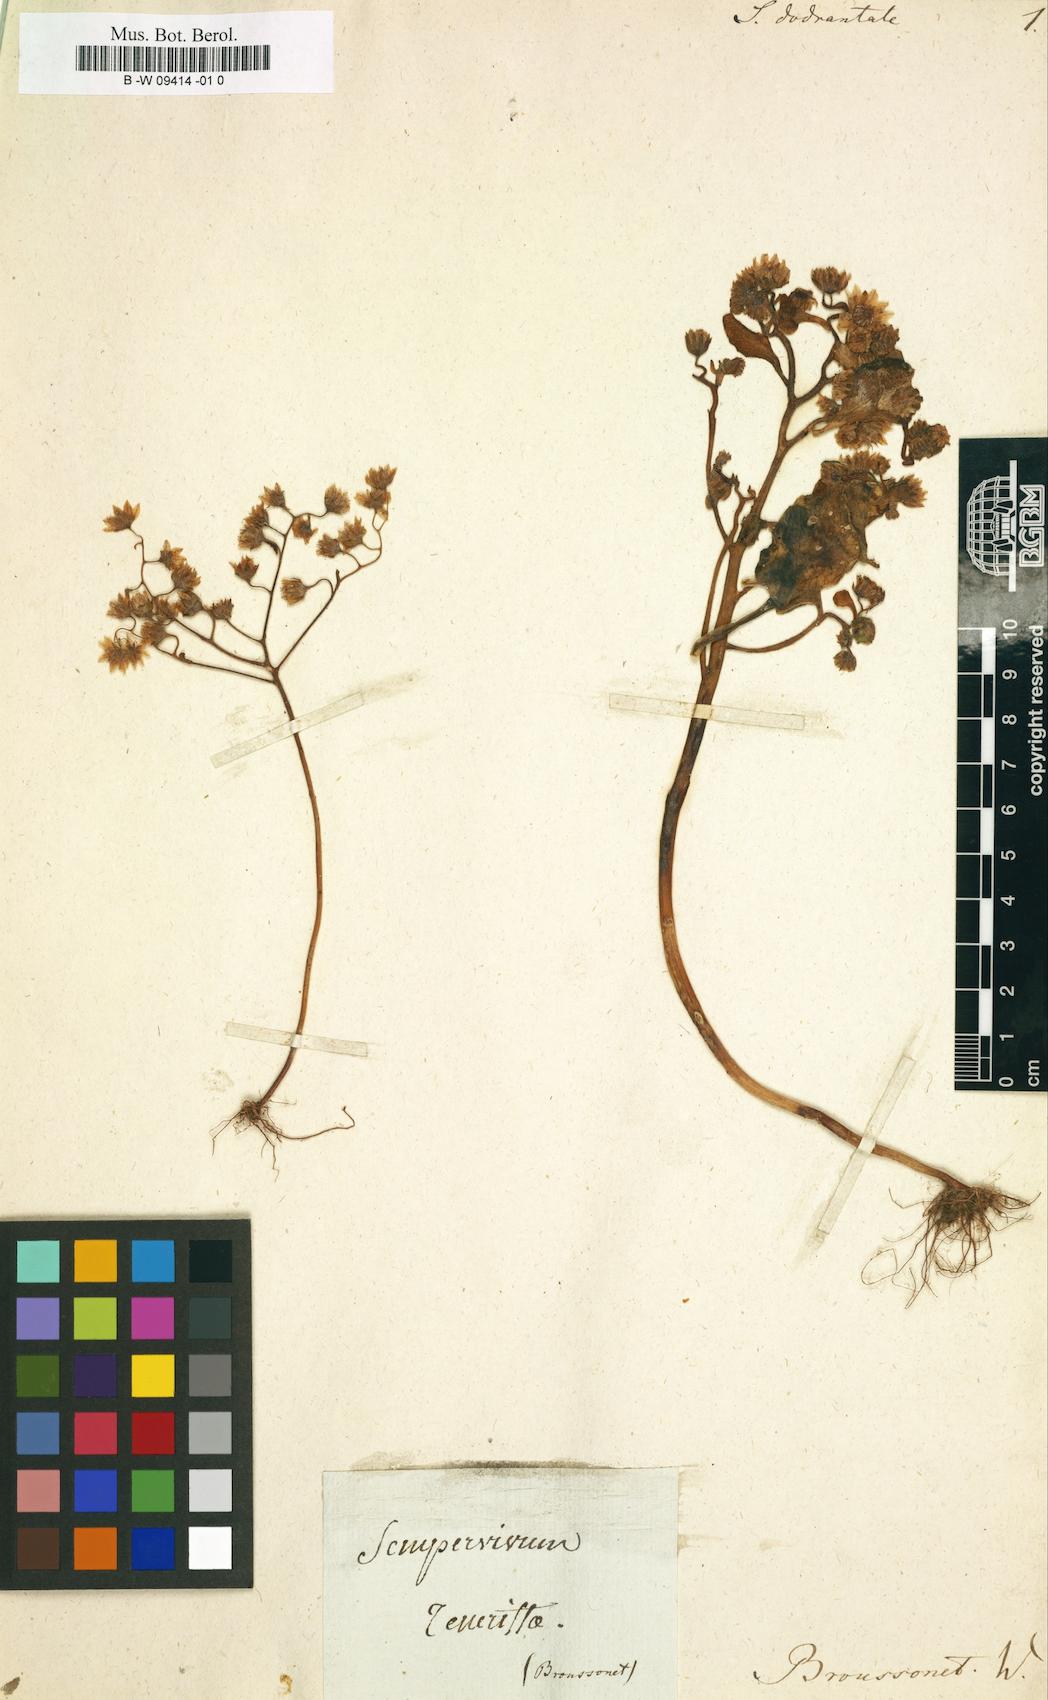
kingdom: Plantae
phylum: Tracheophyta
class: Magnoliopsida
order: Saxifragales
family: Crassulaceae
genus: Aeonium
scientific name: Aeonium dodrantale
